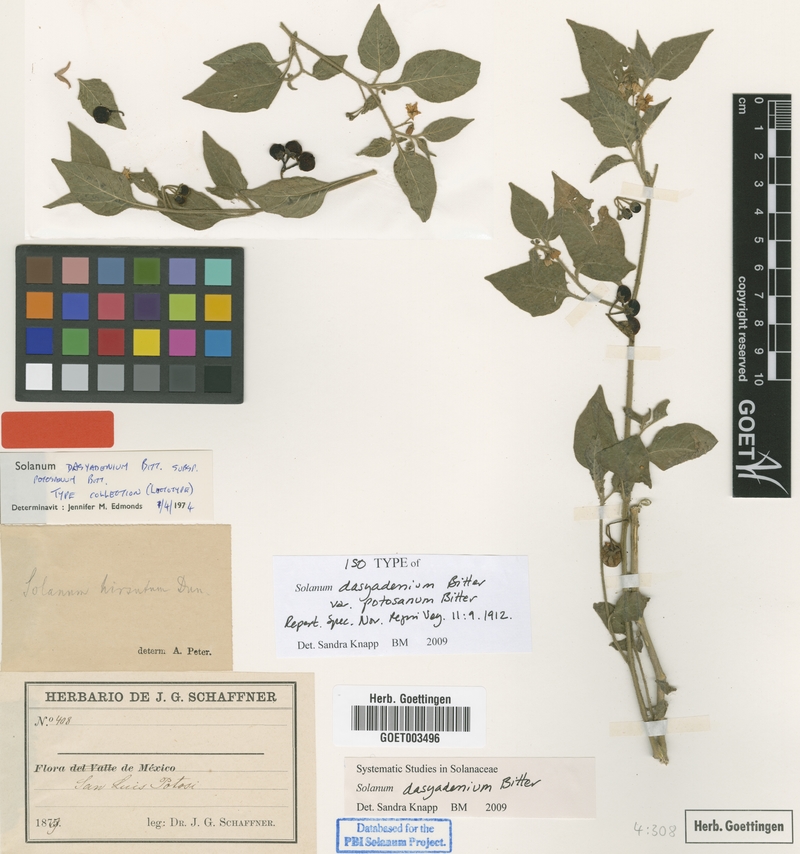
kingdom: Plantae
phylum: Tracheophyta
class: Magnoliopsida
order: Solanales
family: Solanaceae
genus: Solanum
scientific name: Solanum pruinosum
